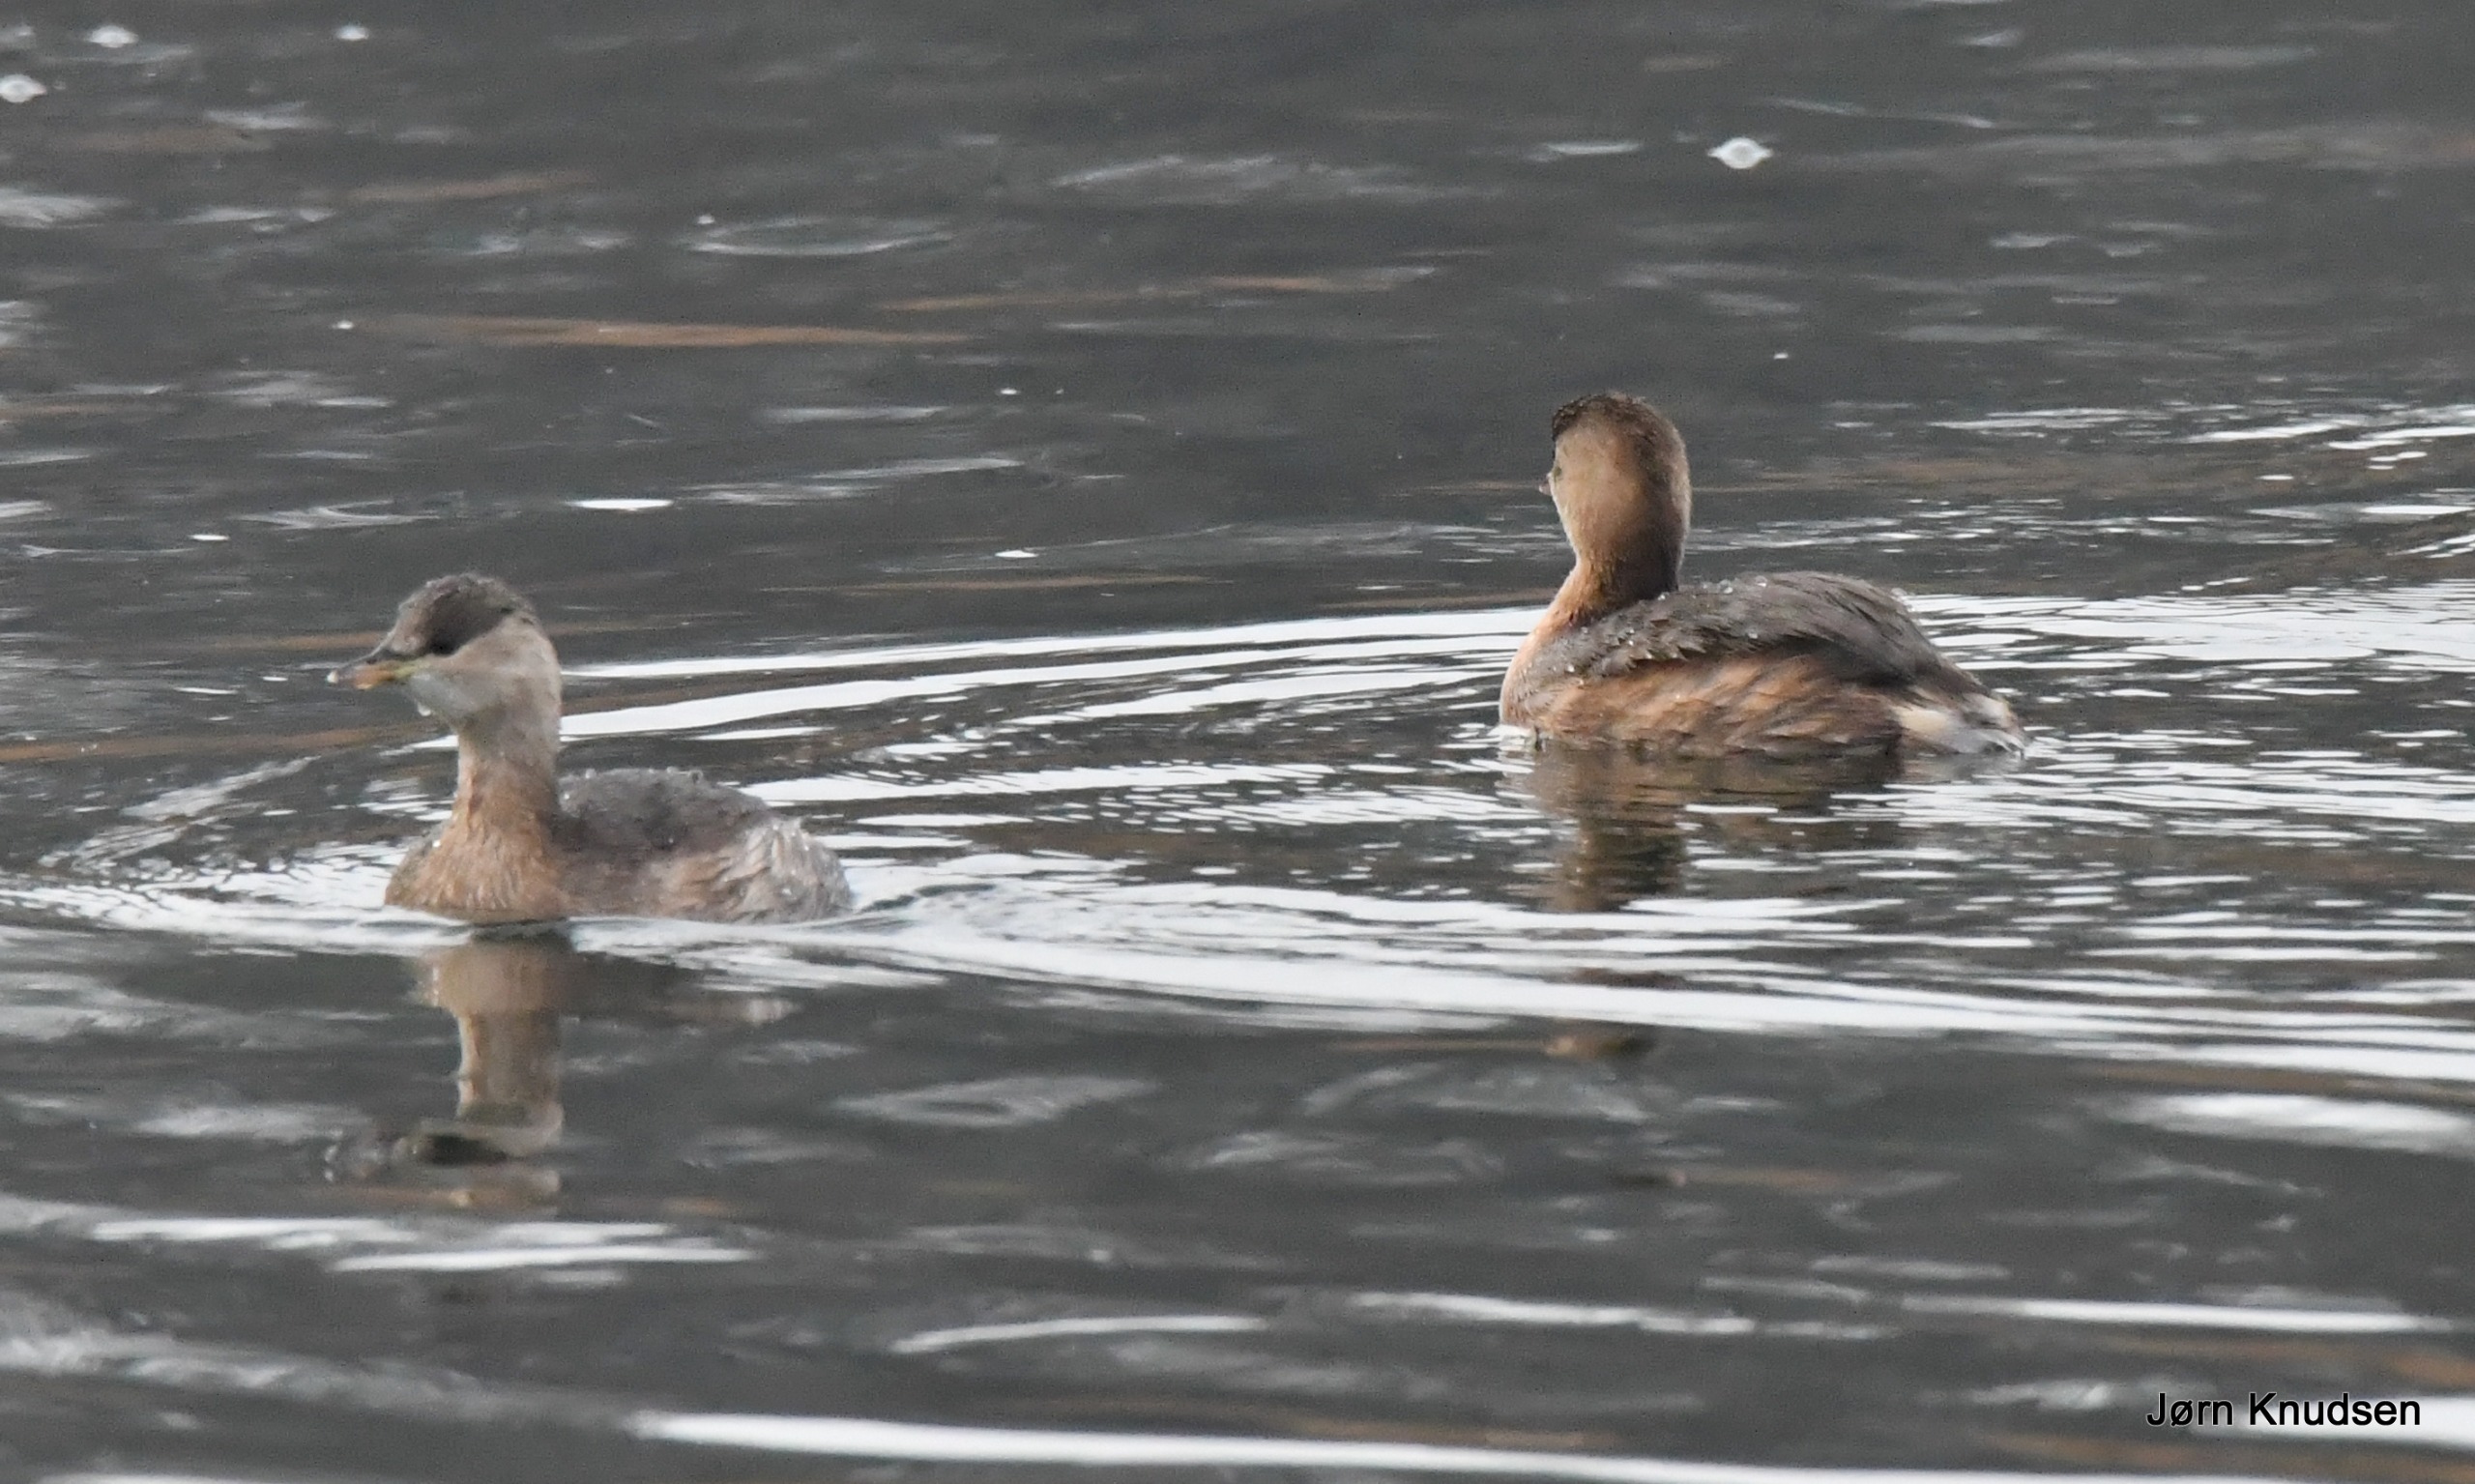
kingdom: Animalia
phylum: Chordata
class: Aves
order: Podicipediformes
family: Podicipedidae
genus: Tachybaptus
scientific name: Tachybaptus ruficollis
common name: Lille lappedykker
